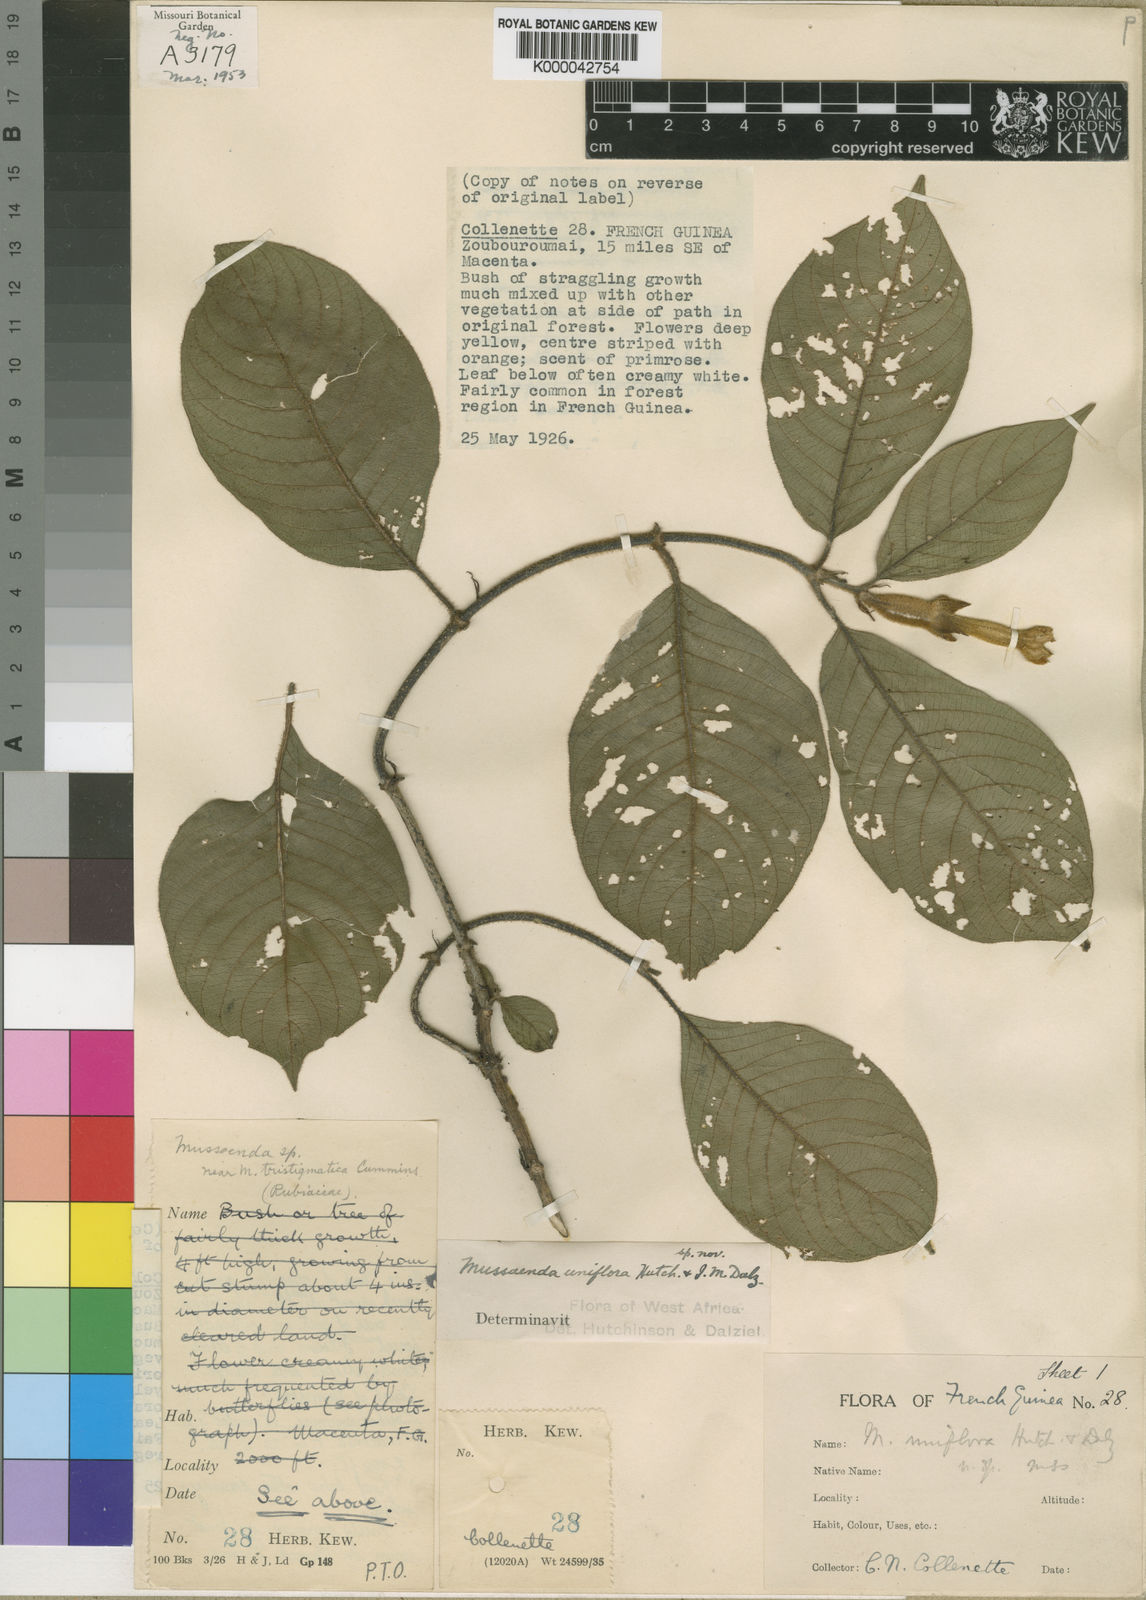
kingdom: Plantae
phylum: Tracheophyta
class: Magnoliopsida
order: Gentianales
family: Rubiaceae
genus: Mussaenda
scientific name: Mussaenda grandiflora
